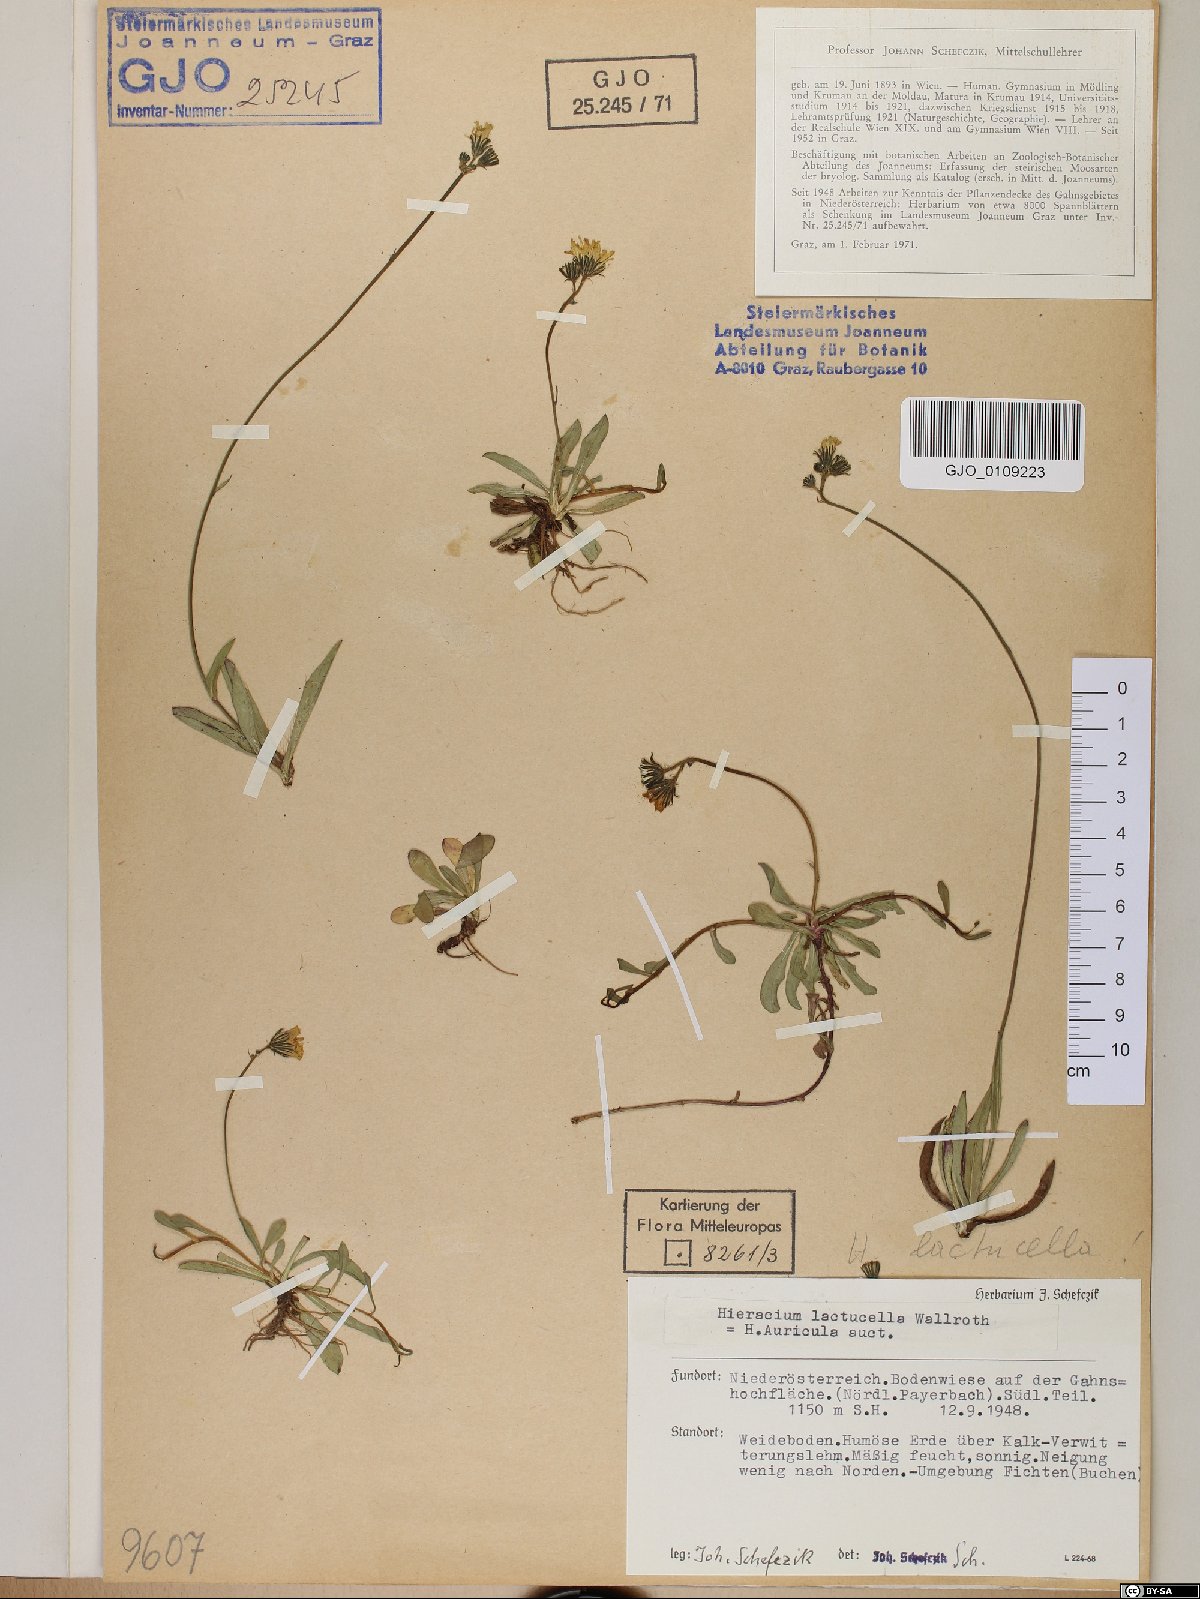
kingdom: Plantae
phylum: Tracheophyta
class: Magnoliopsida
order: Asterales
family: Asteraceae
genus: Pilosella
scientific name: Pilosella lactucella
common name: Glaucous fox-and-cubs
